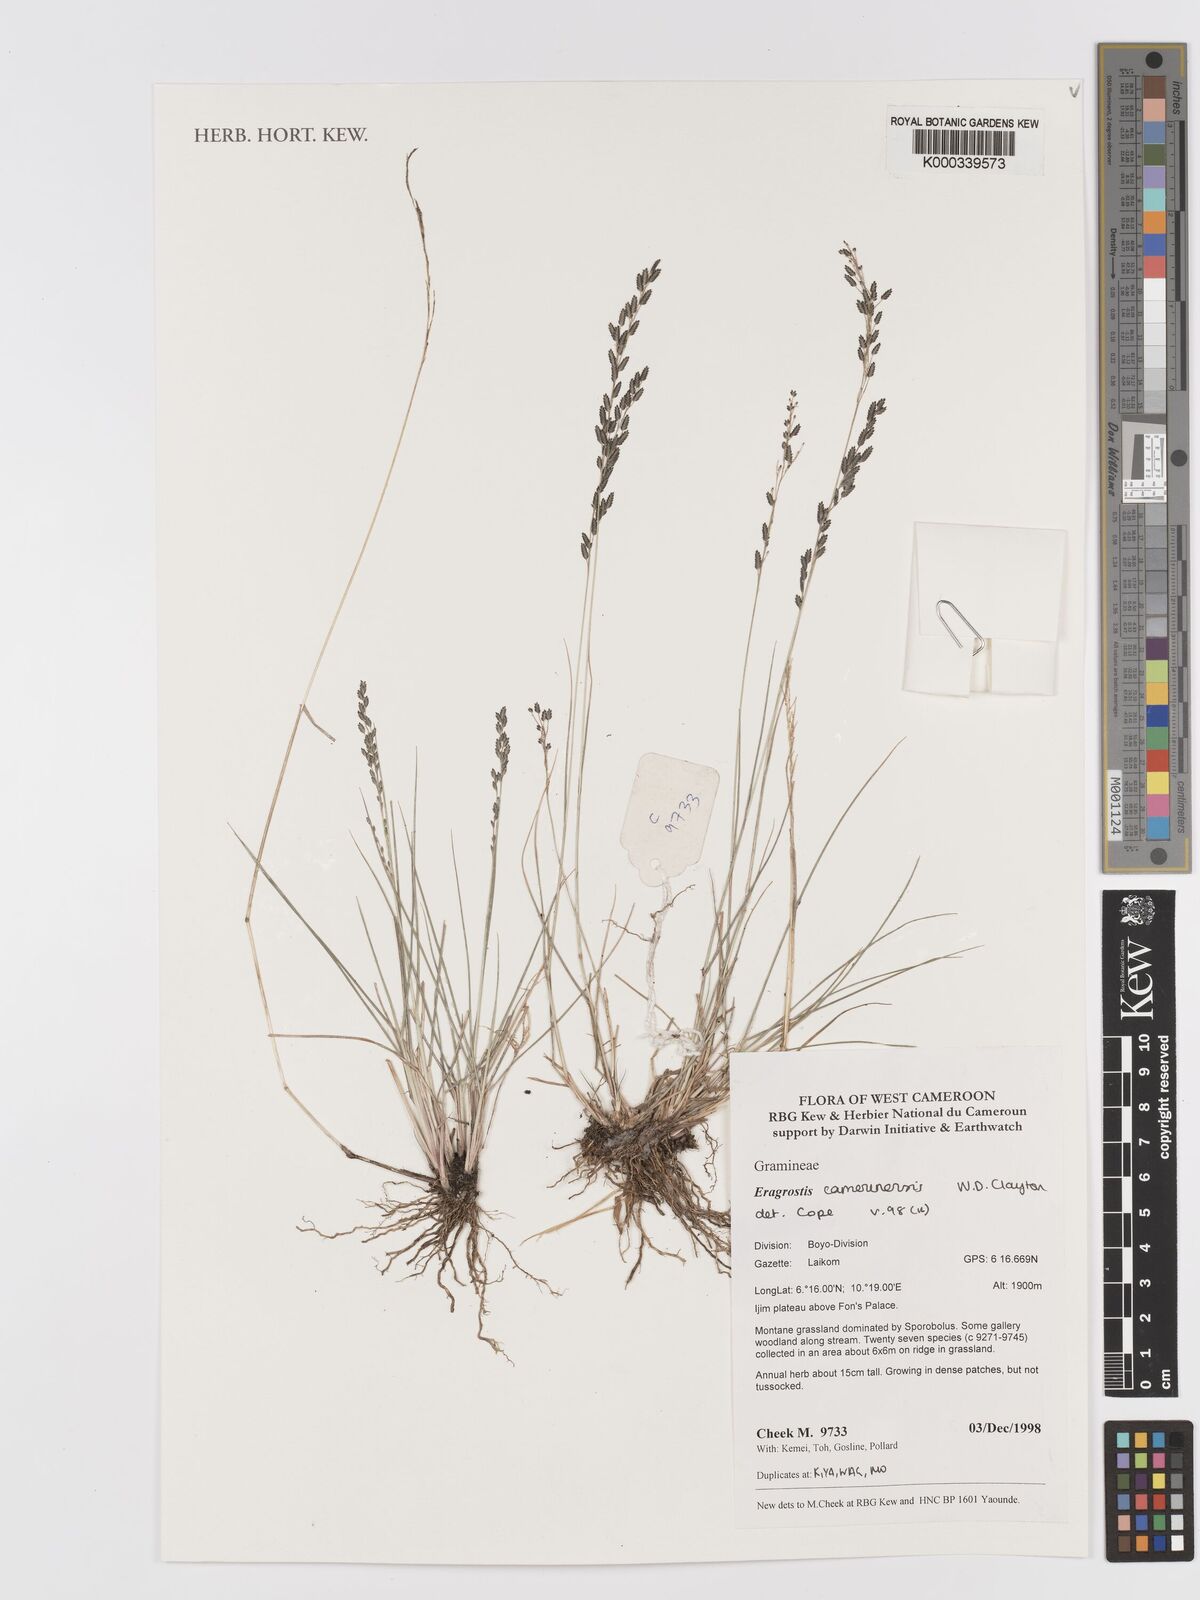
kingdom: Plantae
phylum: Tracheophyta
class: Liliopsida
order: Poales
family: Poaceae
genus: Eragrostis
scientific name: Eragrostis camerunensis
